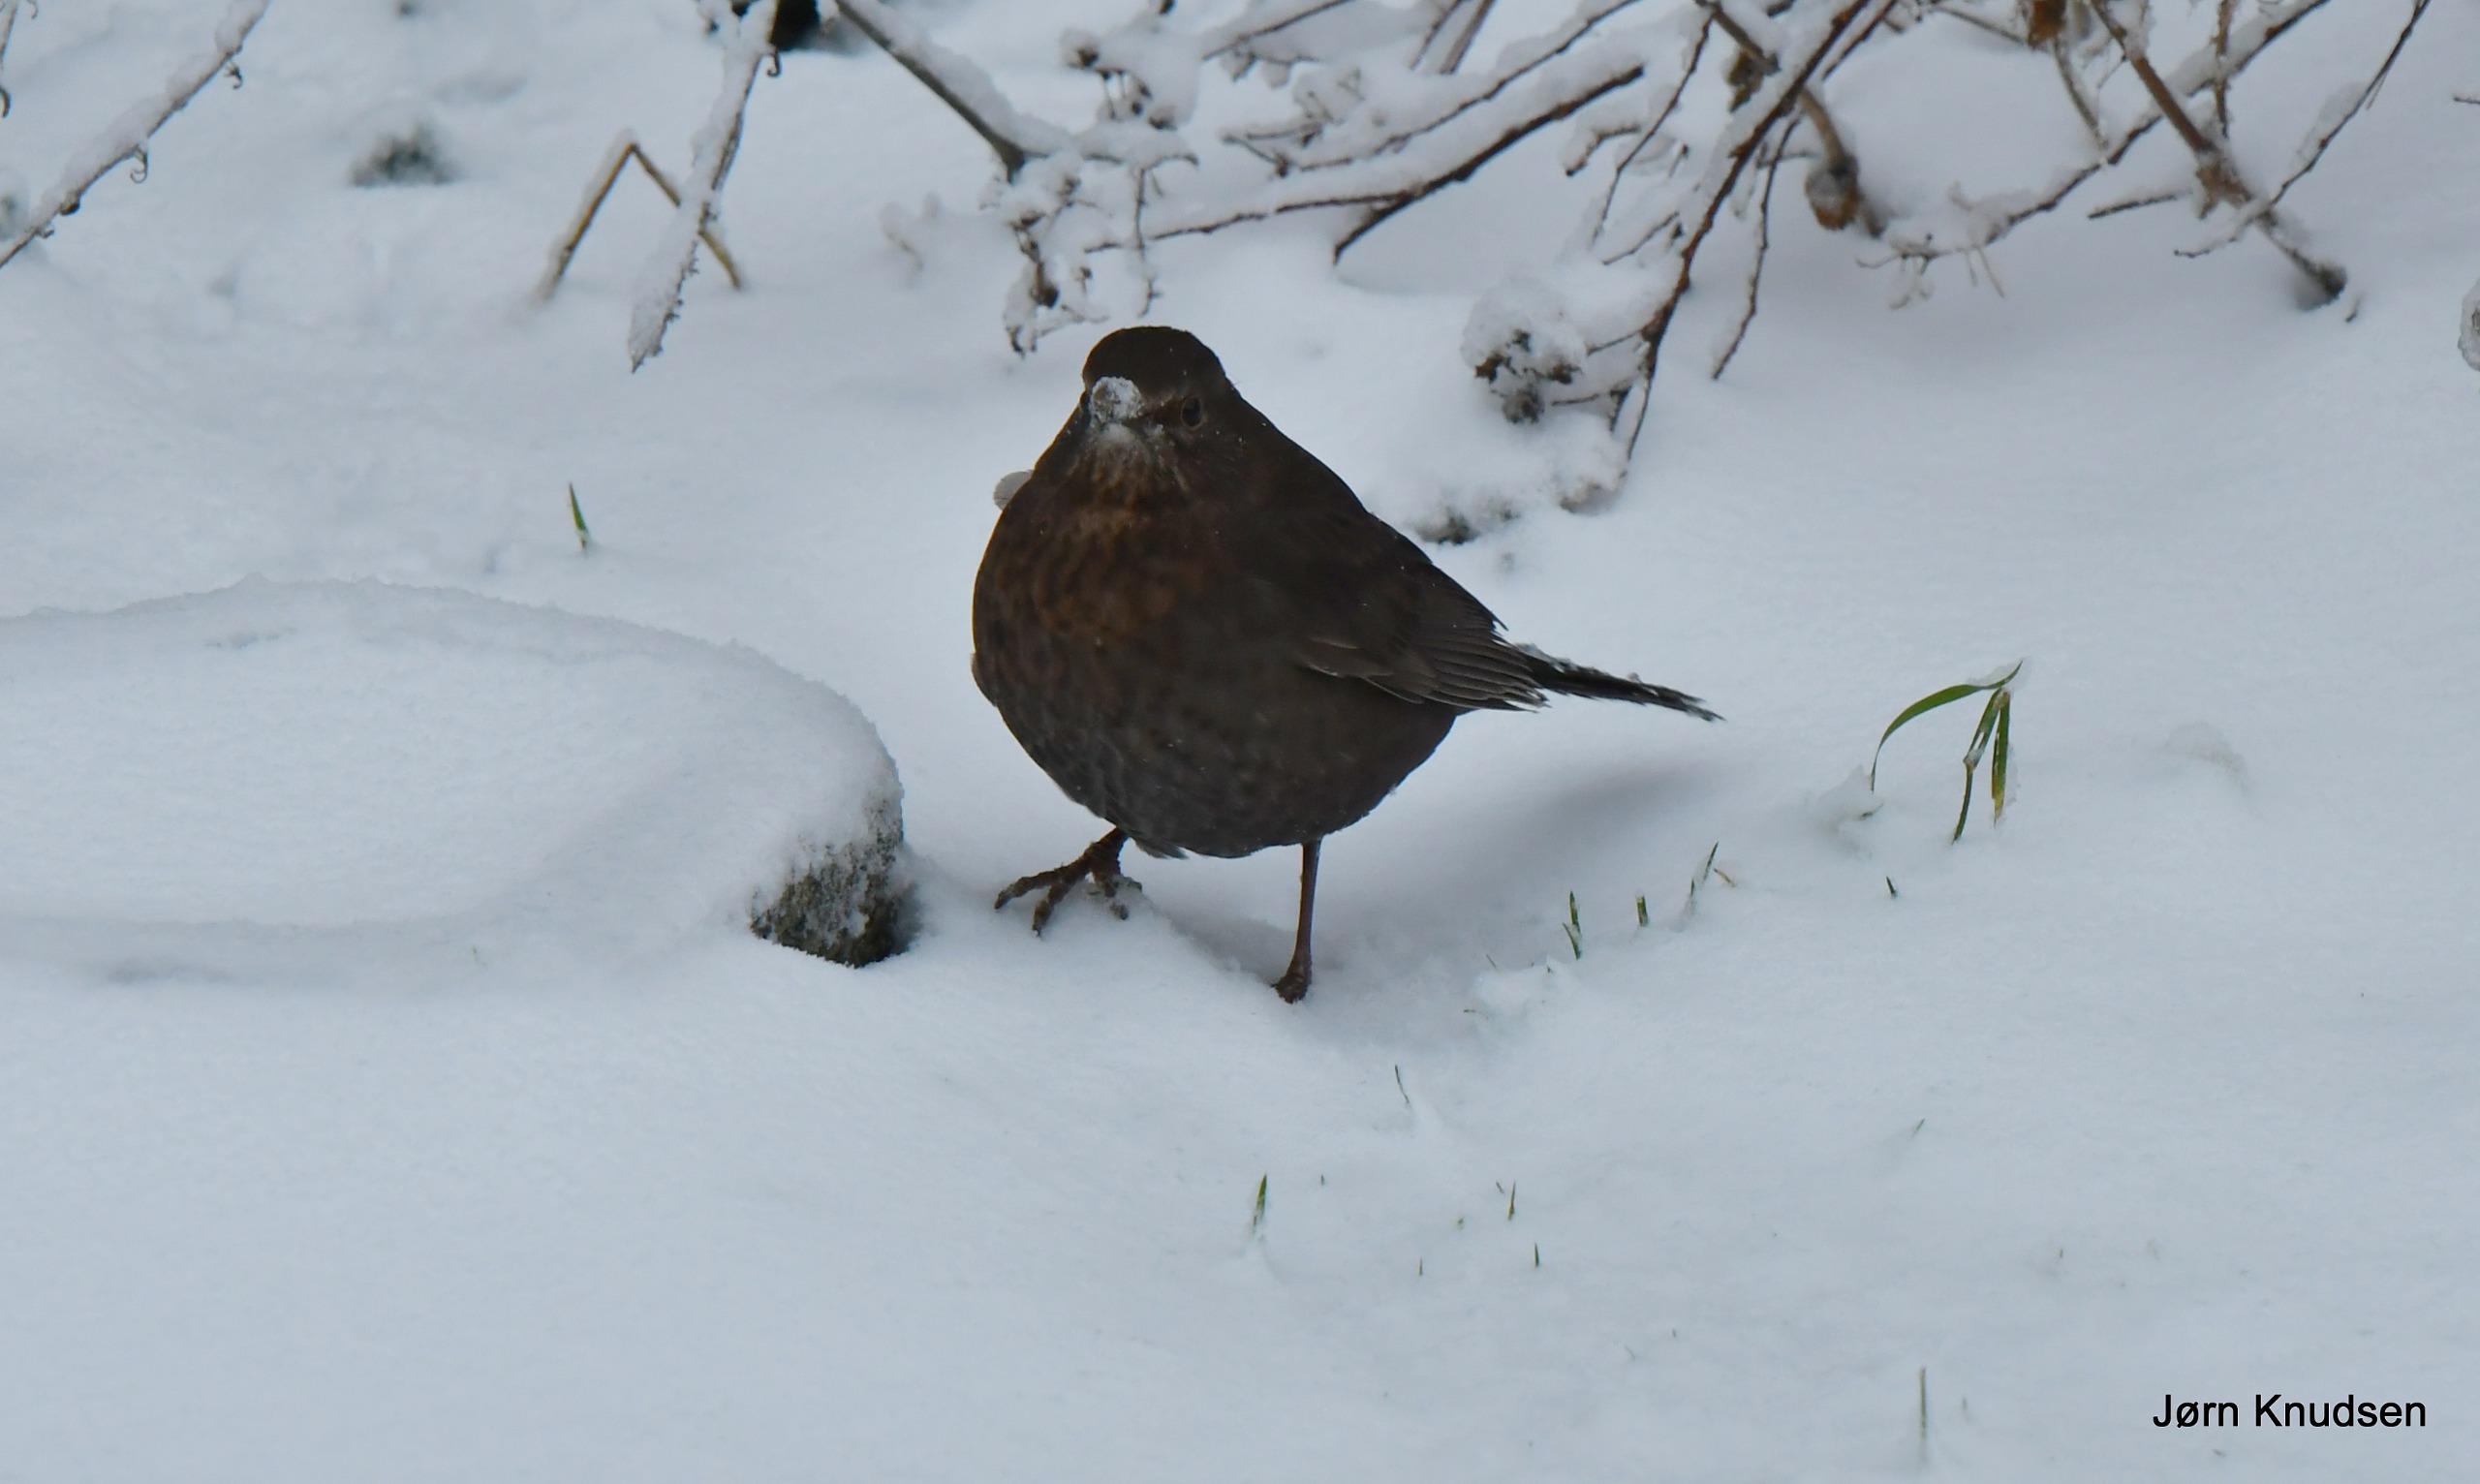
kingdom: Animalia
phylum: Chordata
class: Aves
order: Passeriformes
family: Turdidae
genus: Turdus
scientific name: Turdus merula
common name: Solsort
